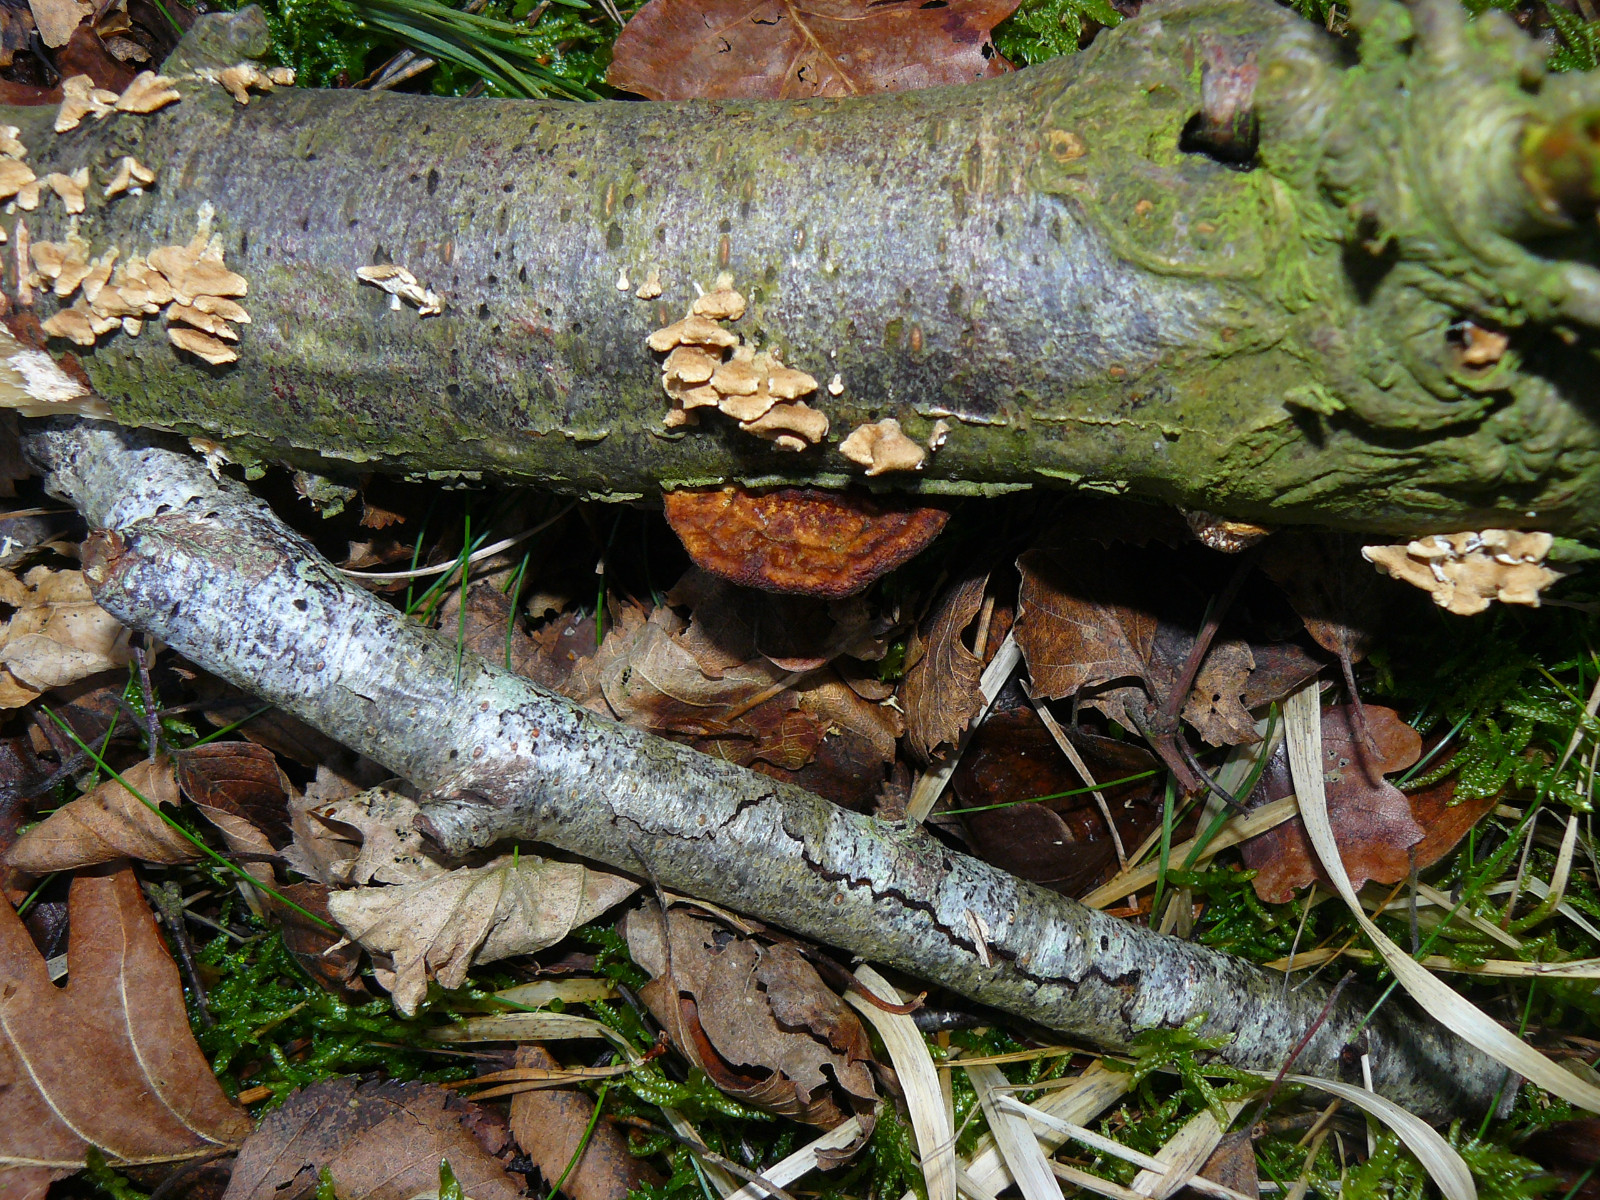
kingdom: Fungi
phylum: Basidiomycota
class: Agaricomycetes
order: Polyporales
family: Polyporaceae
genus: Daedaleopsis
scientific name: Daedaleopsis confragosa
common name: rødmende læderporesvamp
